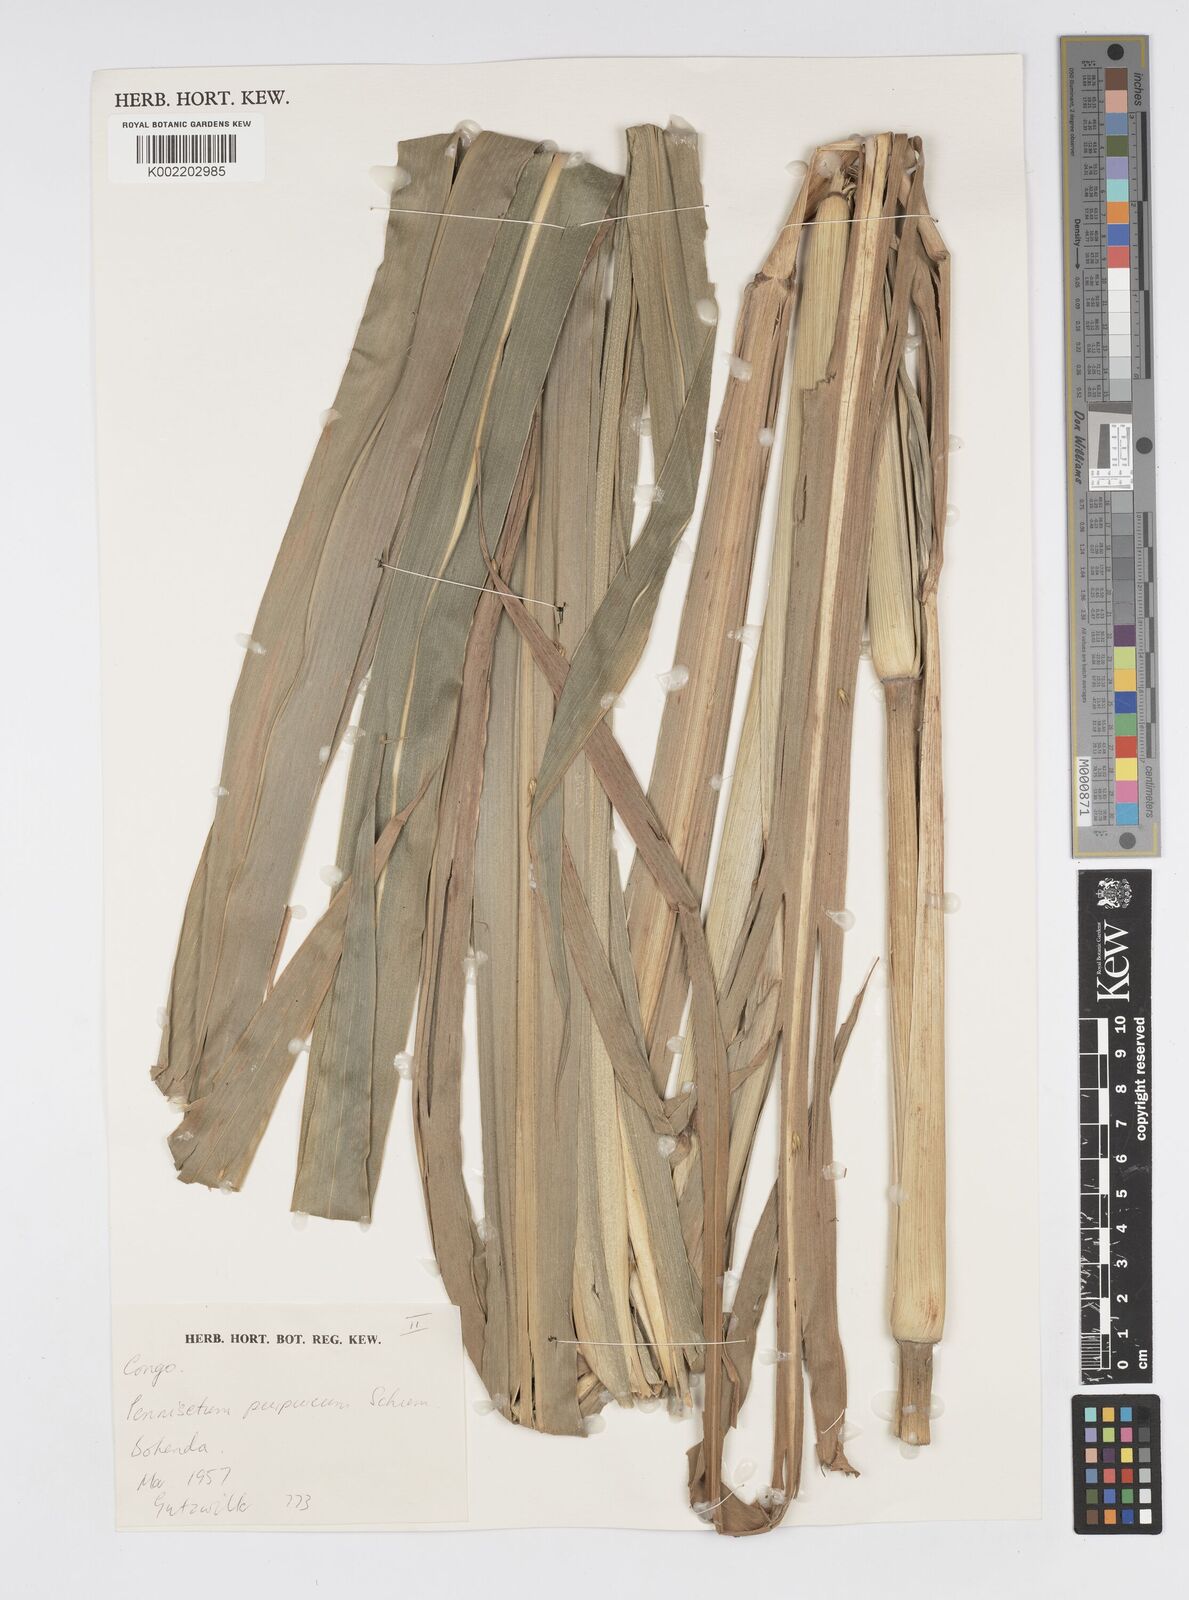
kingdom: Plantae
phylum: Tracheophyta
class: Liliopsida
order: Poales
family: Poaceae
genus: Cenchrus
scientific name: Cenchrus purpureus
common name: Elephant grass
